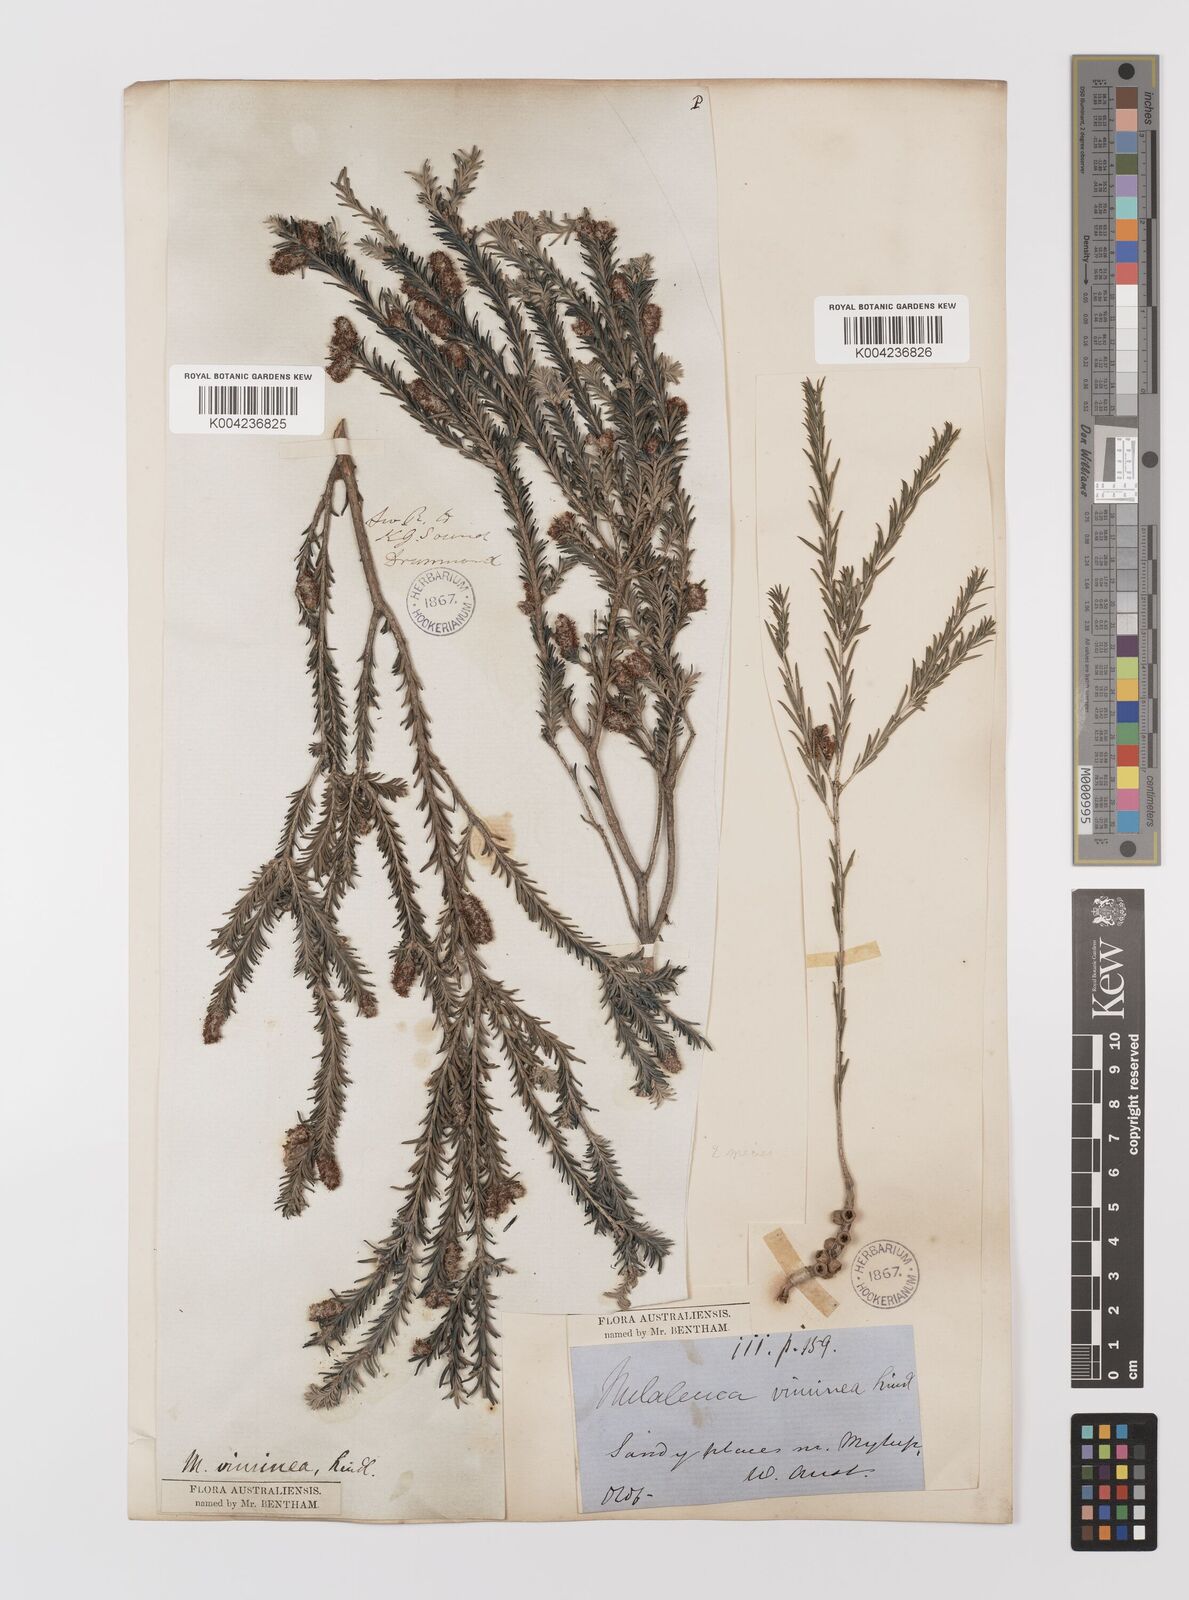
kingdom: Plantae
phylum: Tracheophyta
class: Magnoliopsida
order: Myrtales
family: Myrtaceae
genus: Melaleuca
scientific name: Melaleuca viminea
